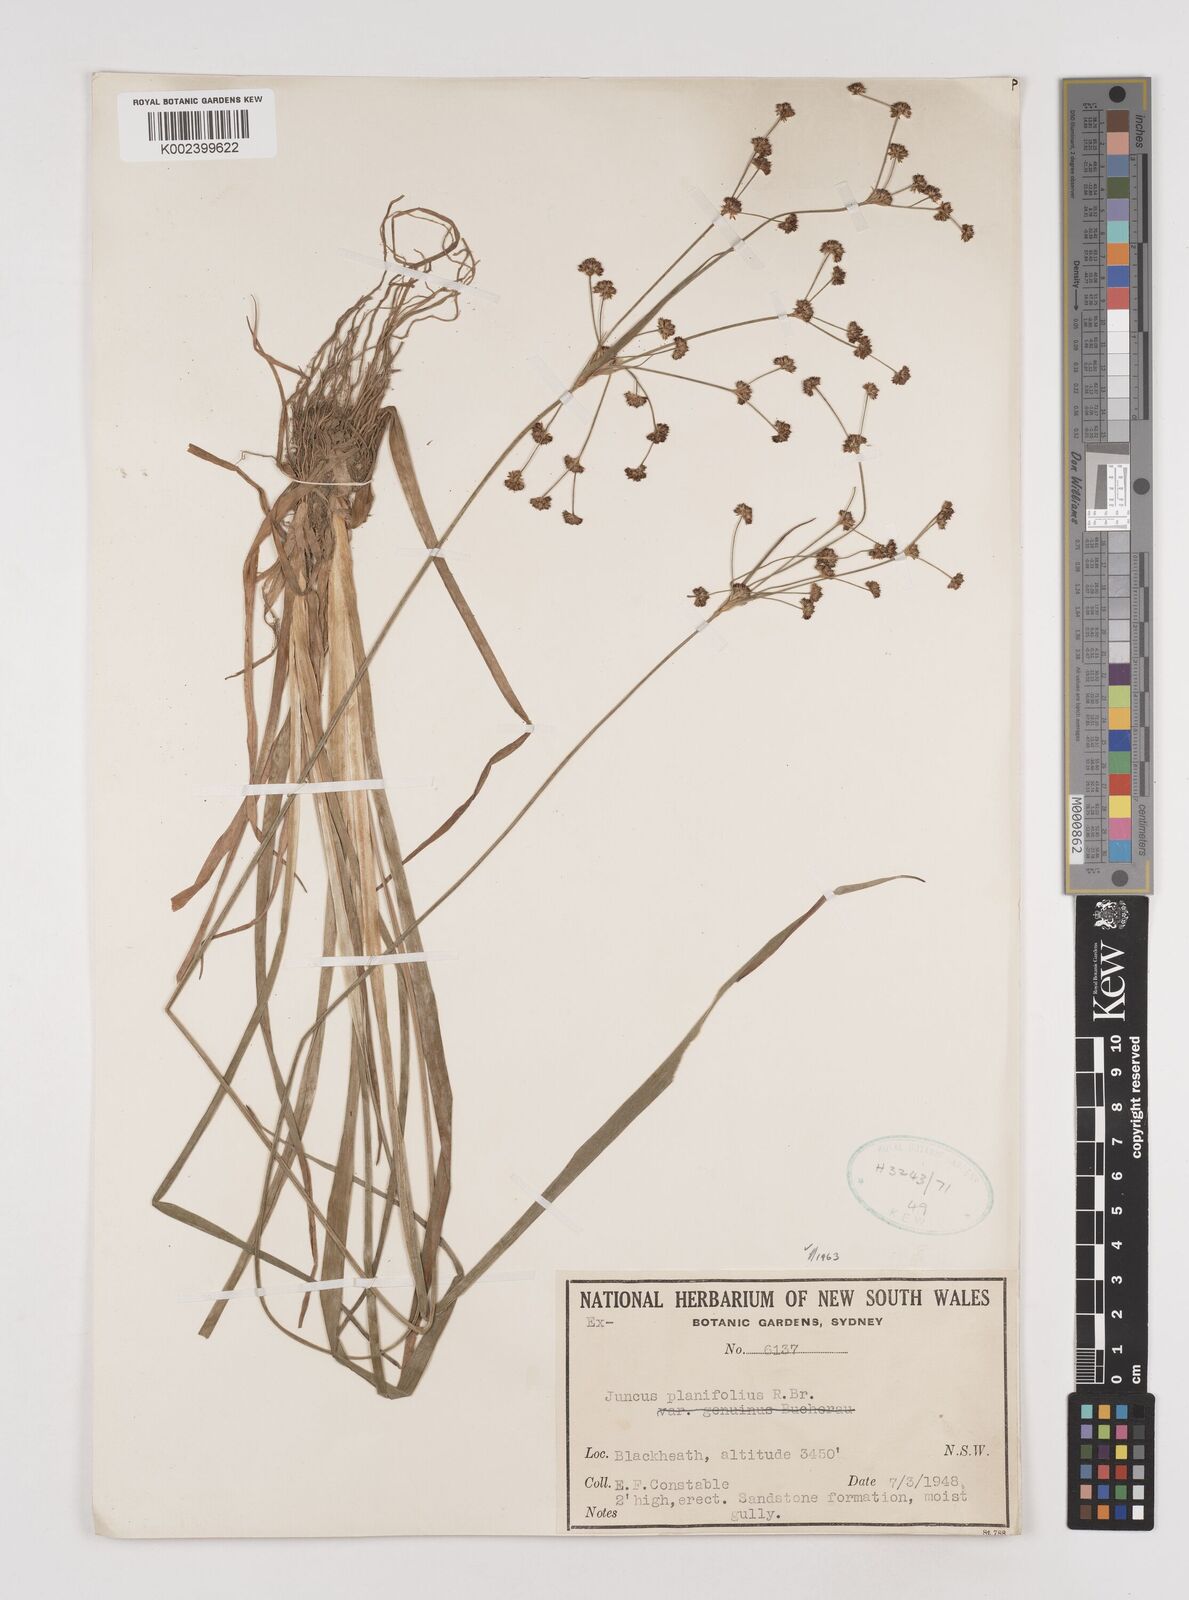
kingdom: Plantae
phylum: Tracheophyta
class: Liliopsida
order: Poales
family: Juncaceae
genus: Juncus
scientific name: Juncus planifolius
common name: Broadleaf rush
